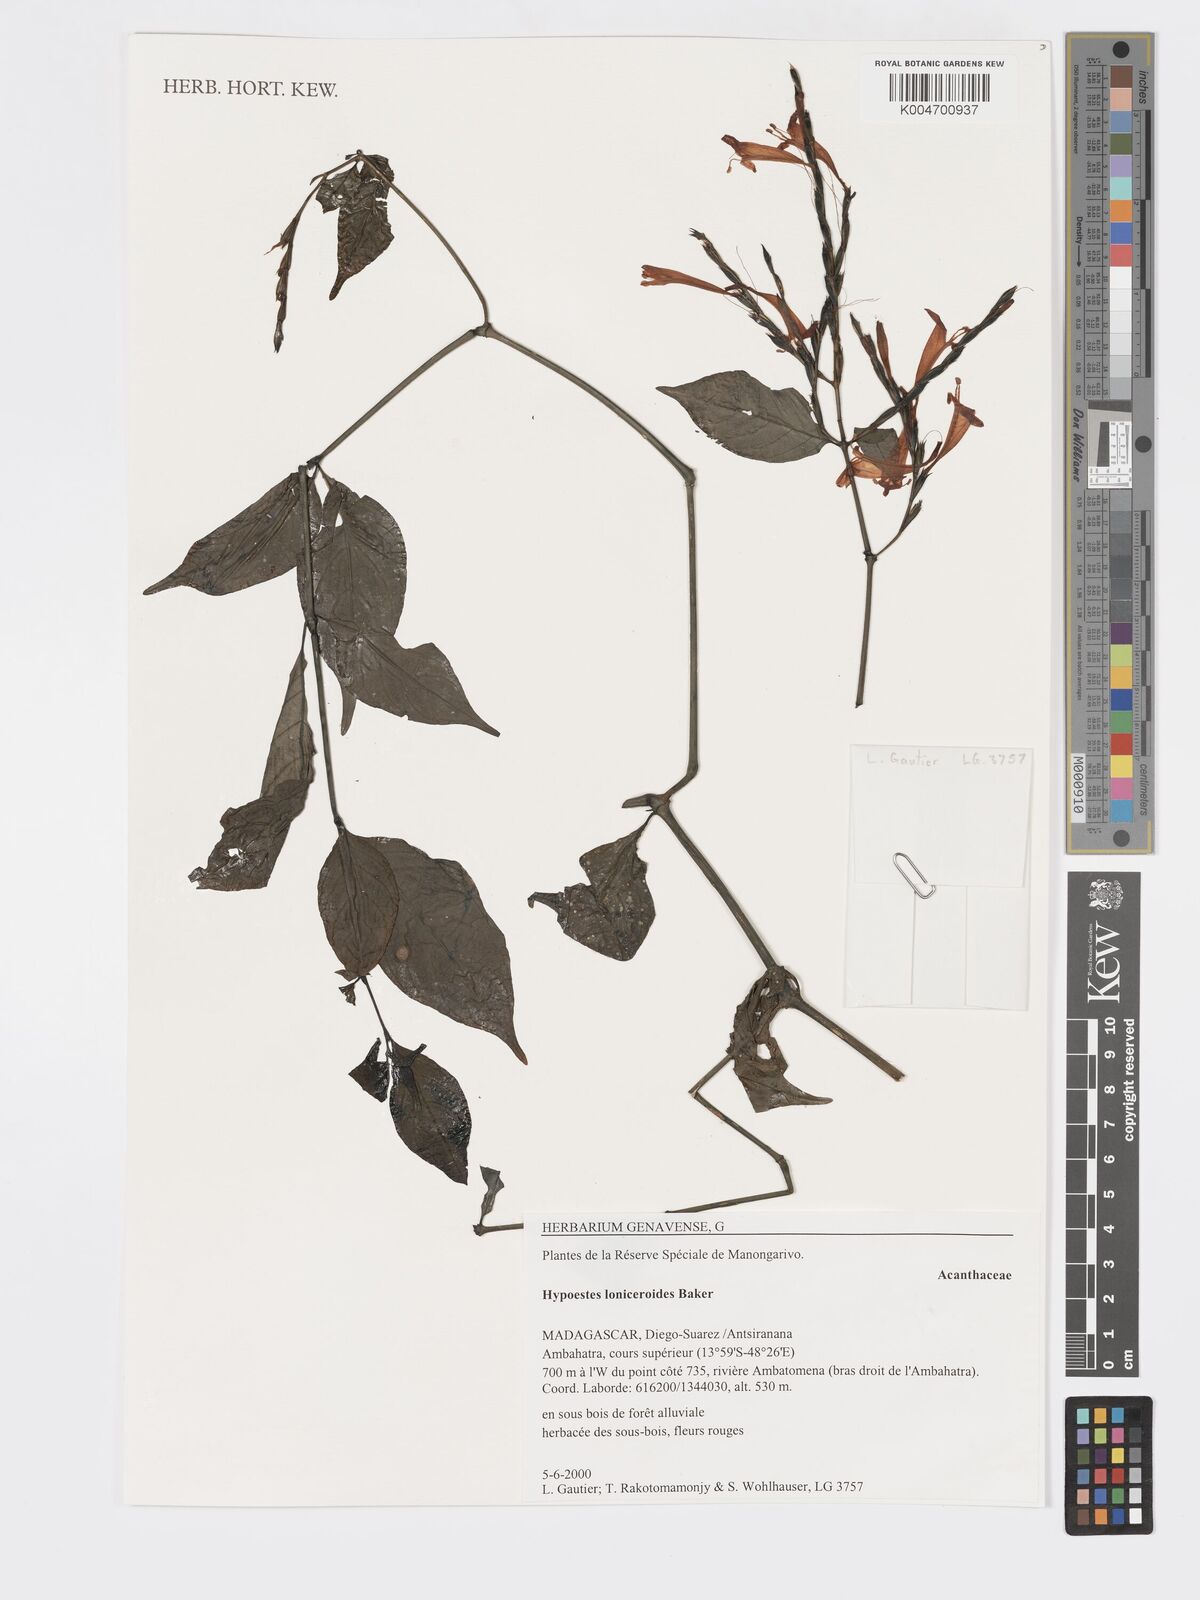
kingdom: Plantae
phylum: Tracheophyta
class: Magnoliopsida
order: Lamiales
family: Acanthaceae
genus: Hypoestes
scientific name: Hypoestes
